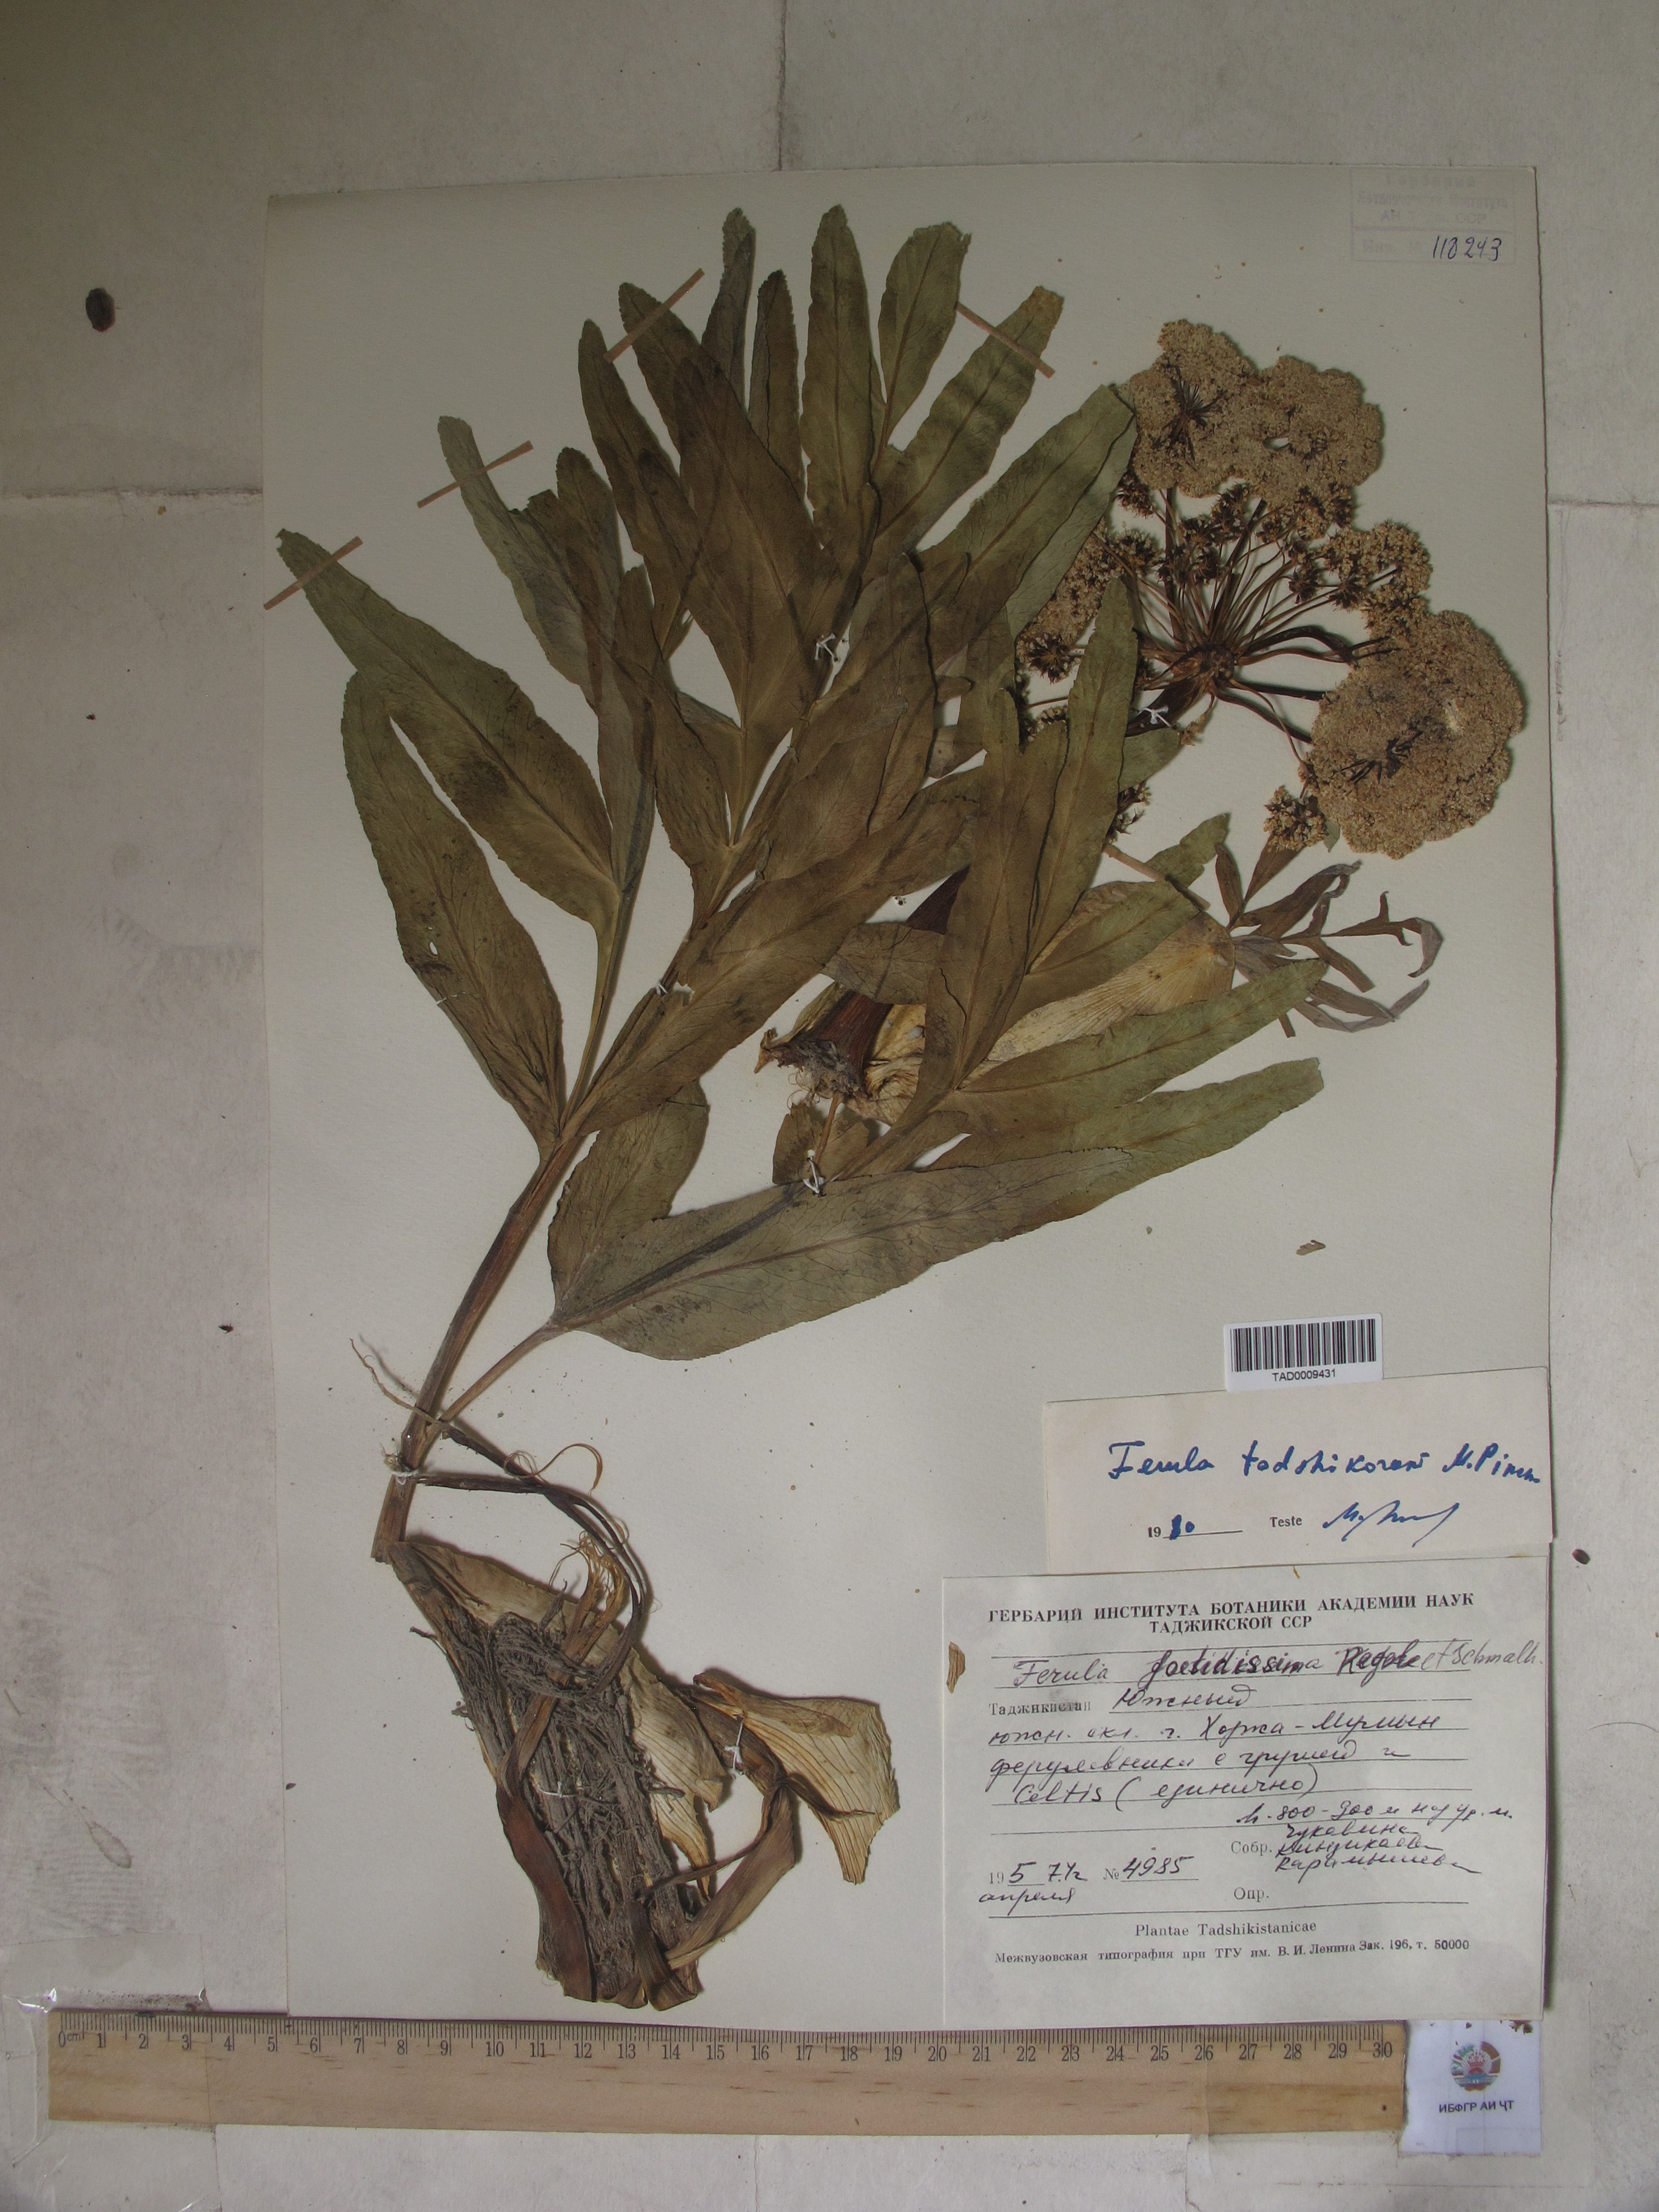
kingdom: Plantae
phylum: Tracheophyta
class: Magnoliopsida
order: Apiales
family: Apiaceae
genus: Ferula
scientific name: Ferula tadshikorum
